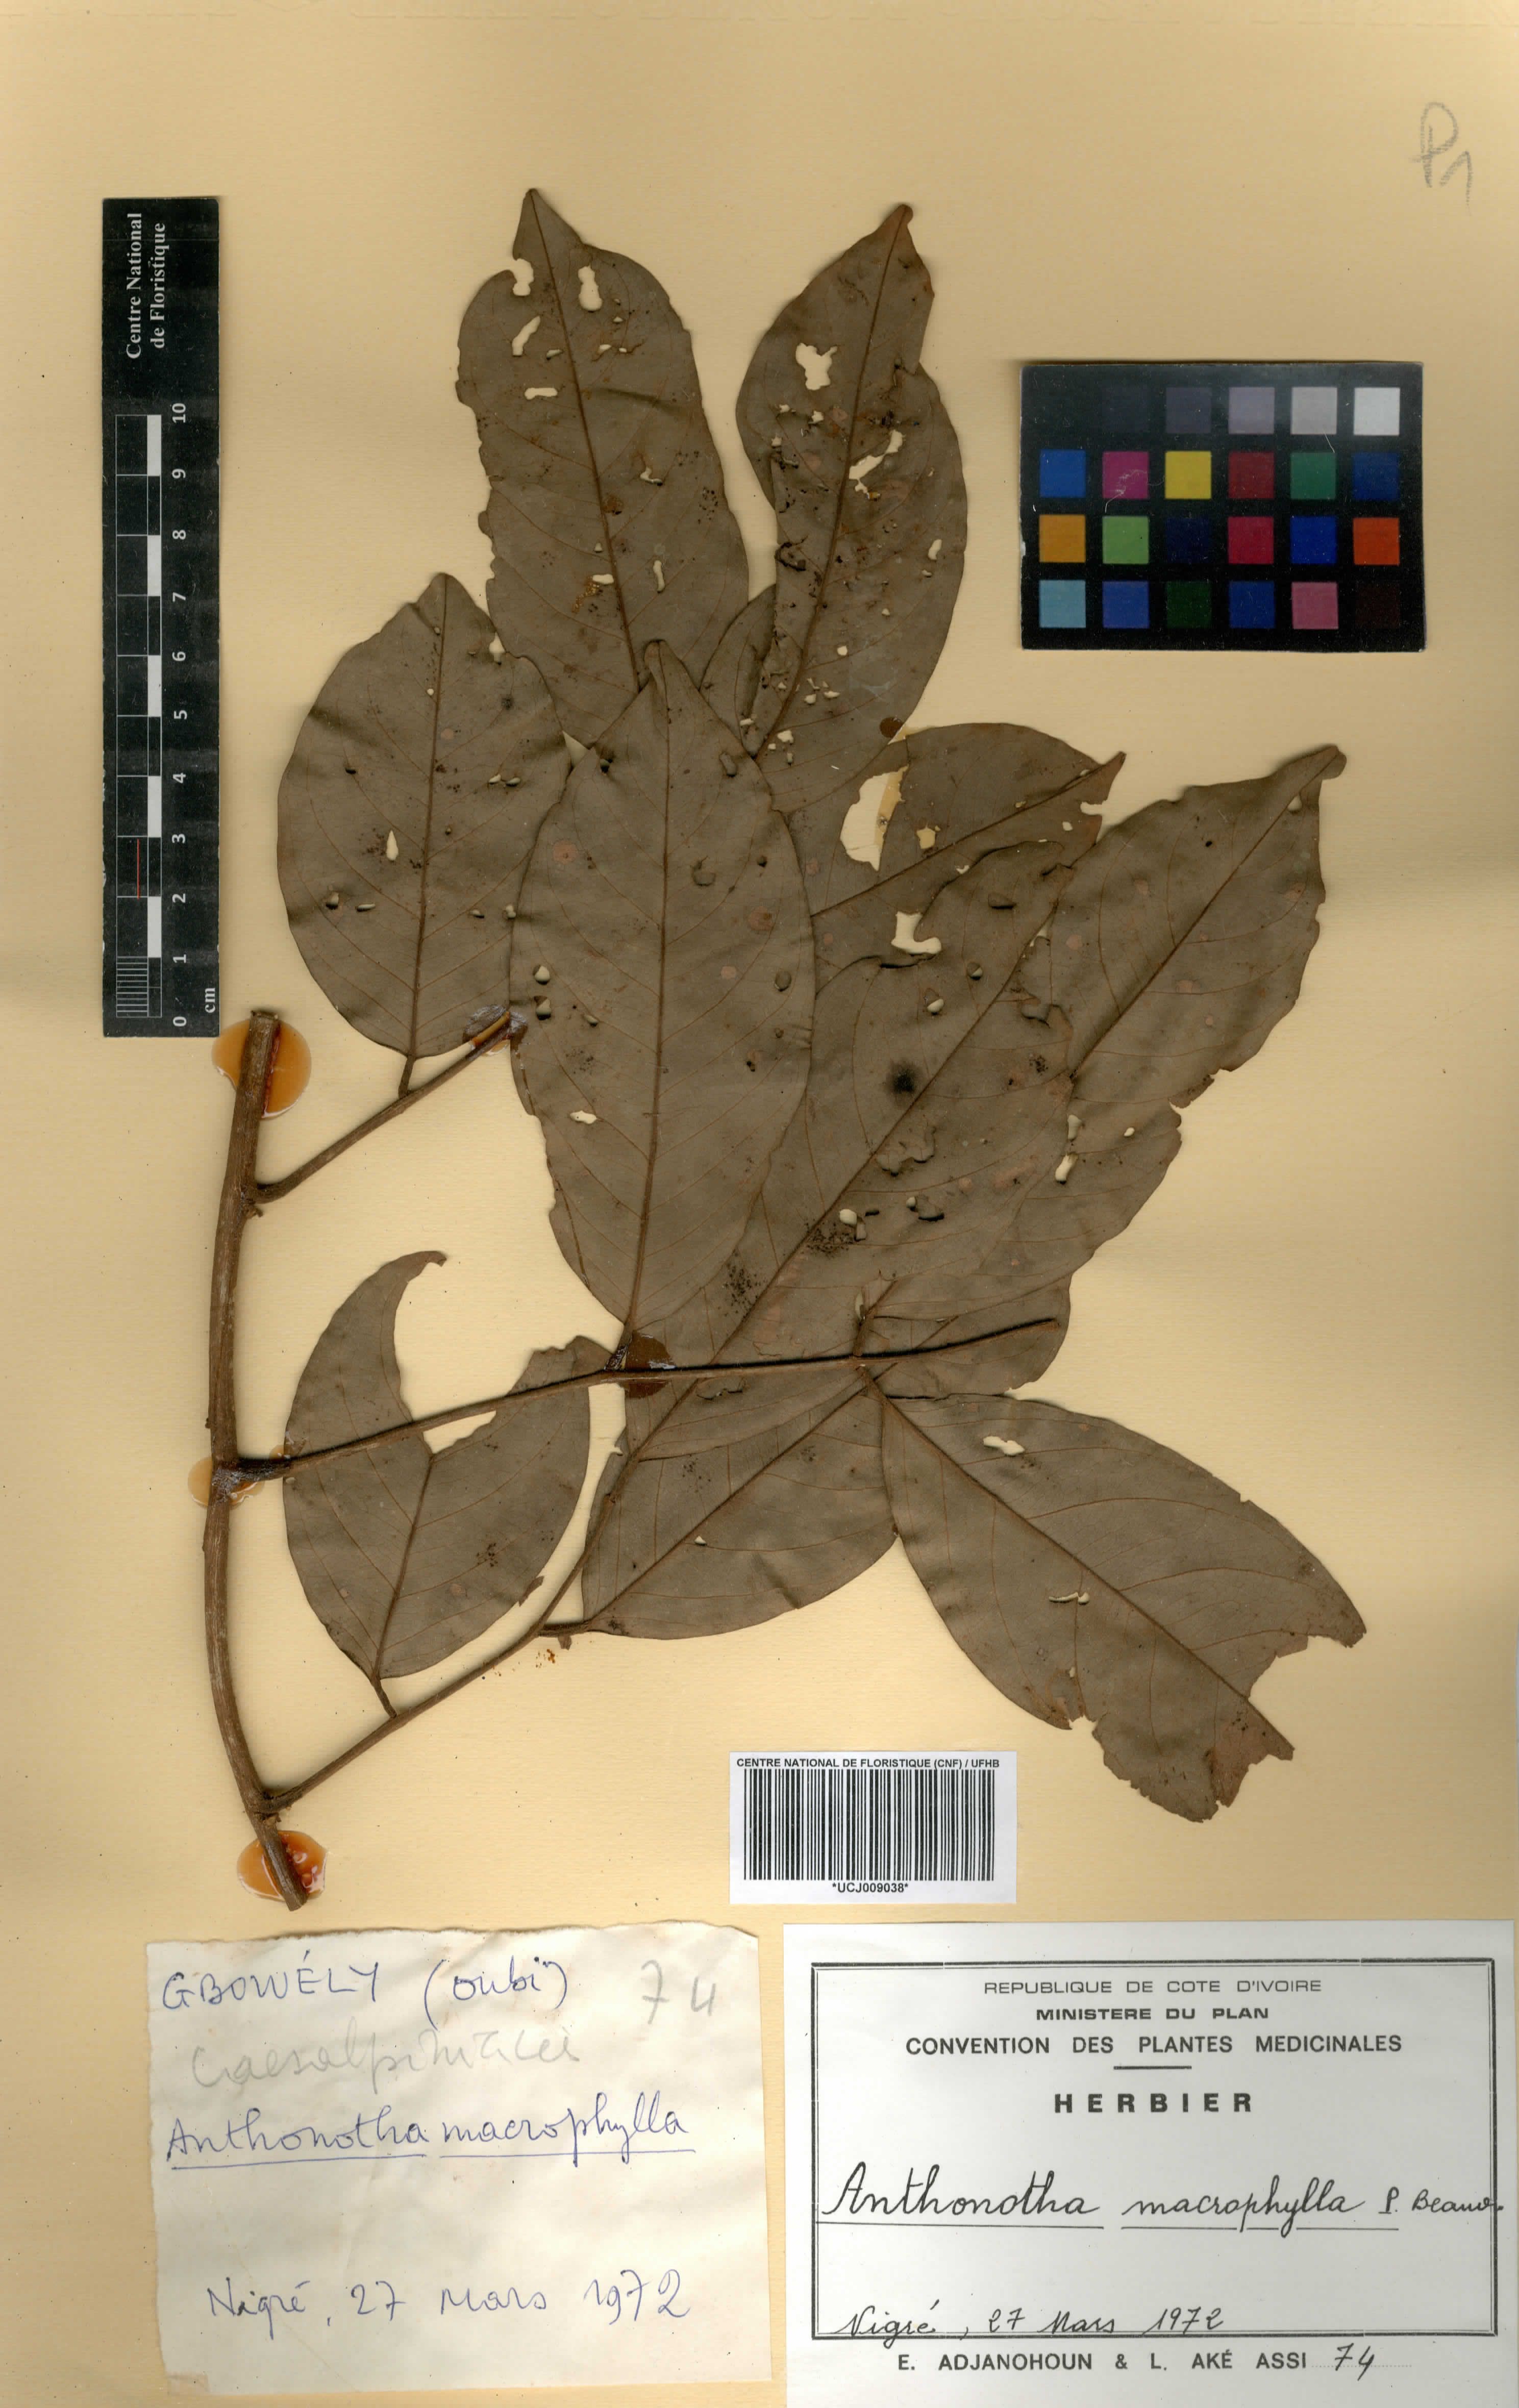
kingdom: Plantae
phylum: Tracheophyta
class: Magnoliopsida
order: Fabales
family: Fabaceae
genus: Anthonotha
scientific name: Anthonotha macrophylla
